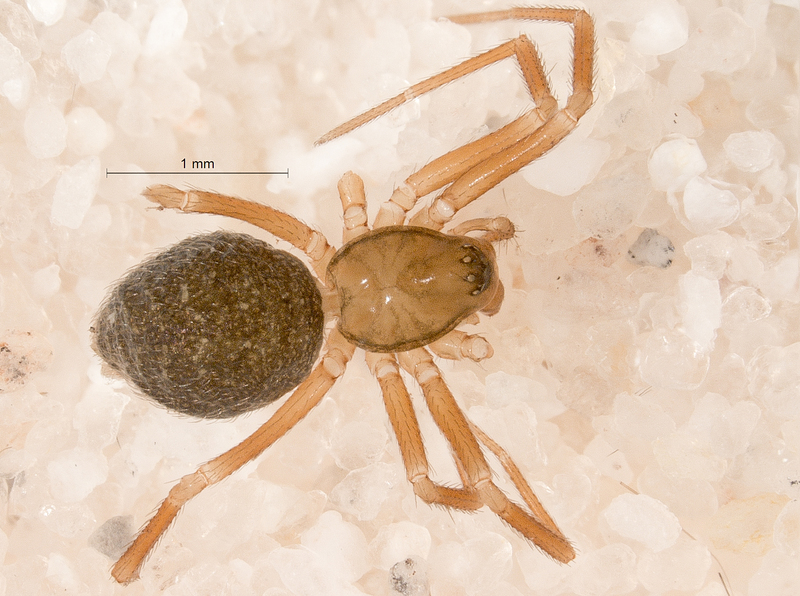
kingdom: Animalia
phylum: Arthropoda
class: Arachnida
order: Araneae
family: Linyphiidae
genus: Evansia
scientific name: Evansia merens
